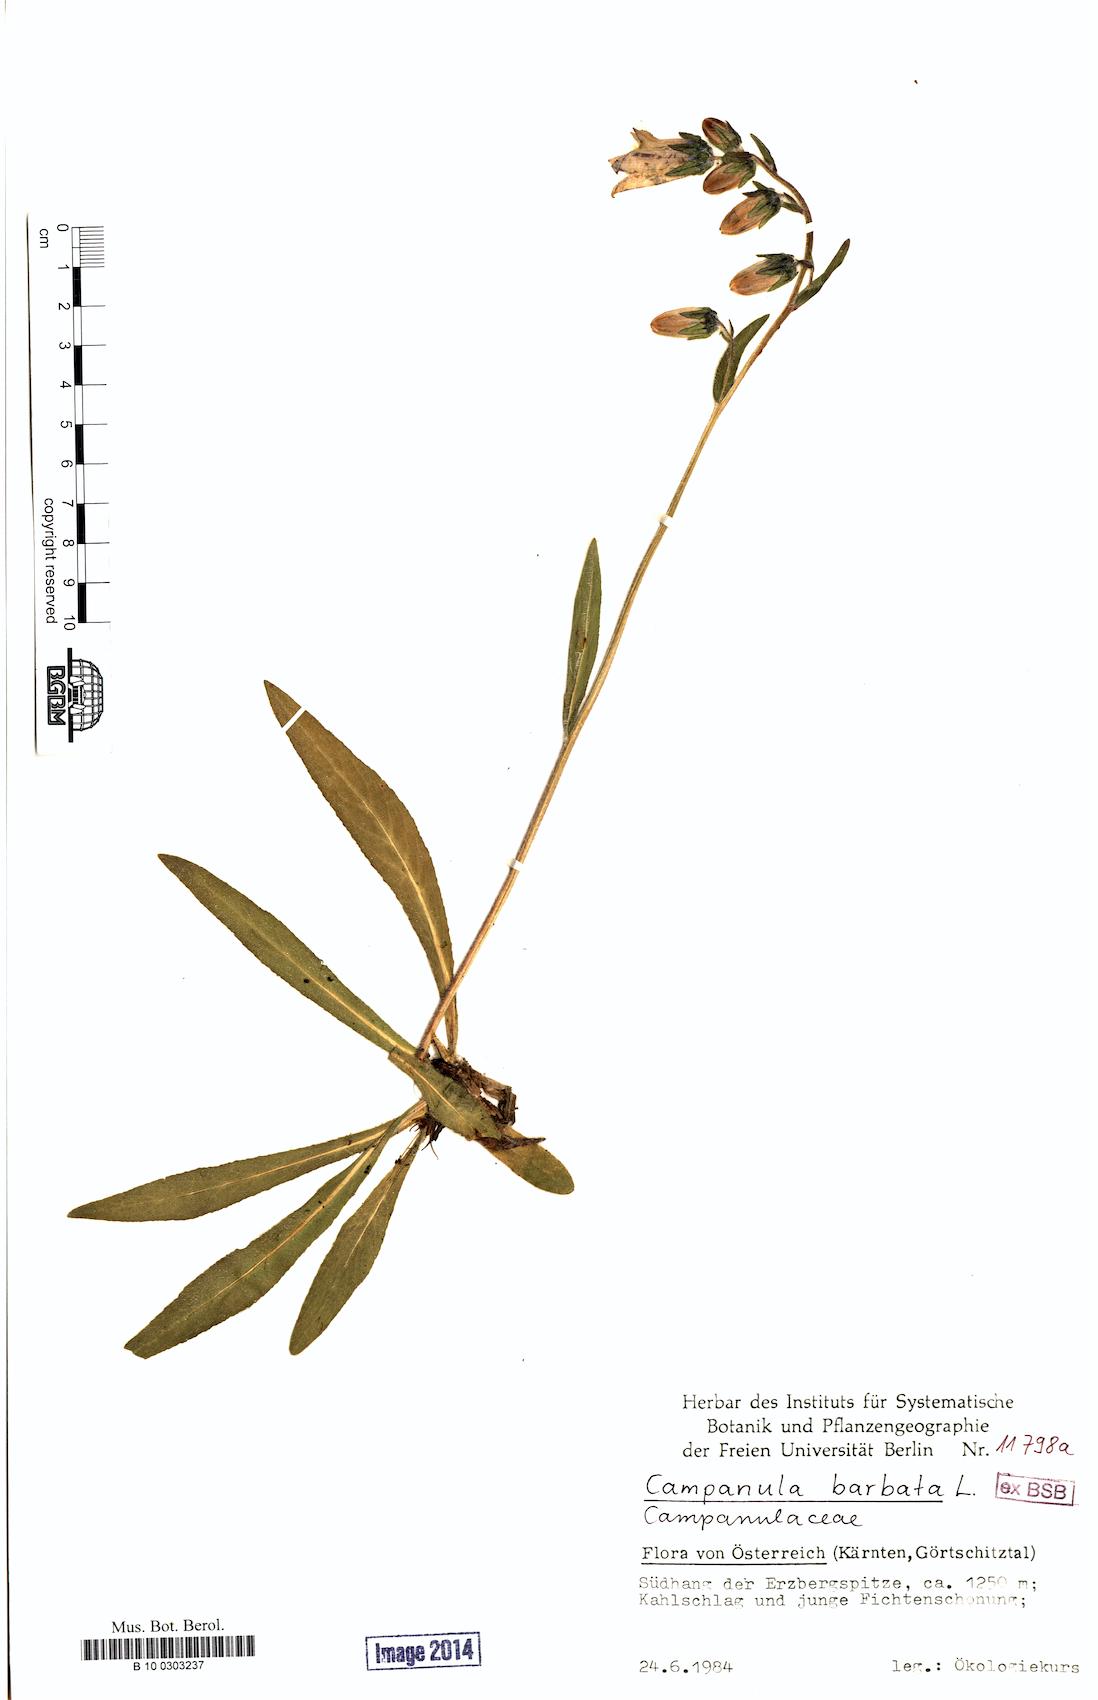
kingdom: Plantae
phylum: Tracheophyta
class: Magnoliopsida
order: Asterales
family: Campanulaceae
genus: Campanula
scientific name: Campanula barbata
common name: Bearded bellflower
